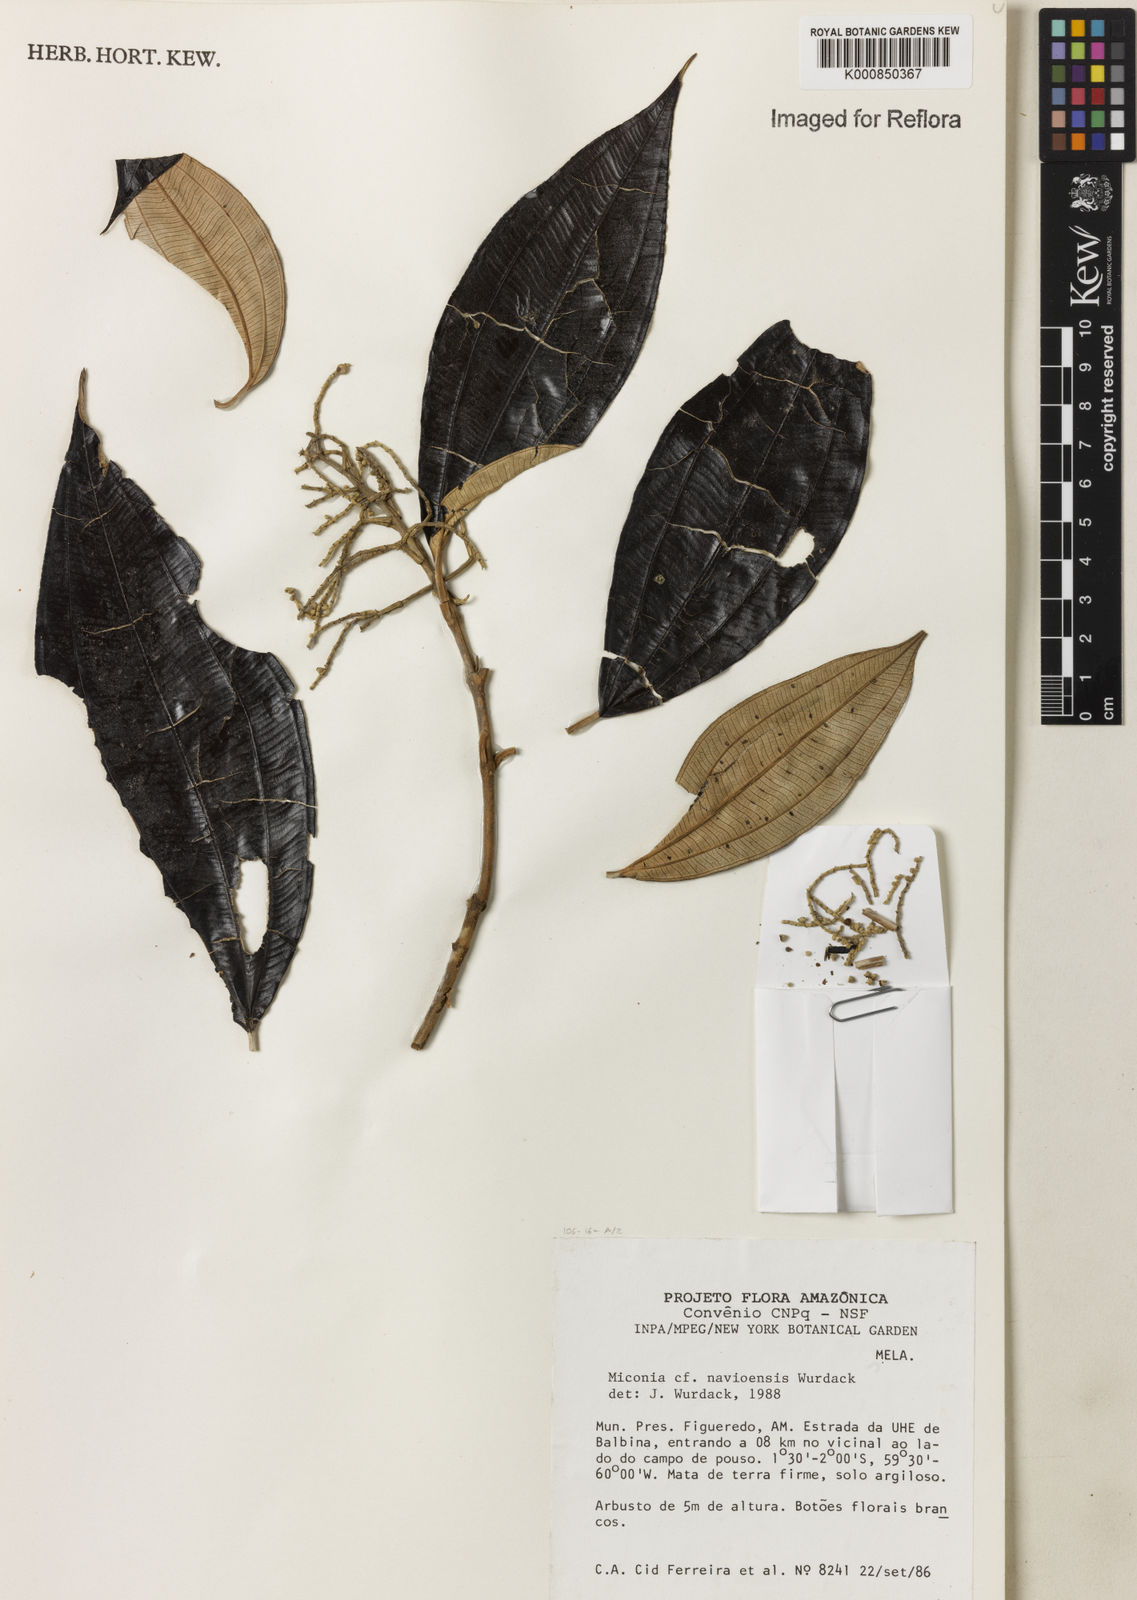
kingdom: Plantae
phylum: Tracheophyta
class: Magnoliopsida
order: Myrtales
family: Melastomataceae
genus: Miconia
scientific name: Miconia navioensis
